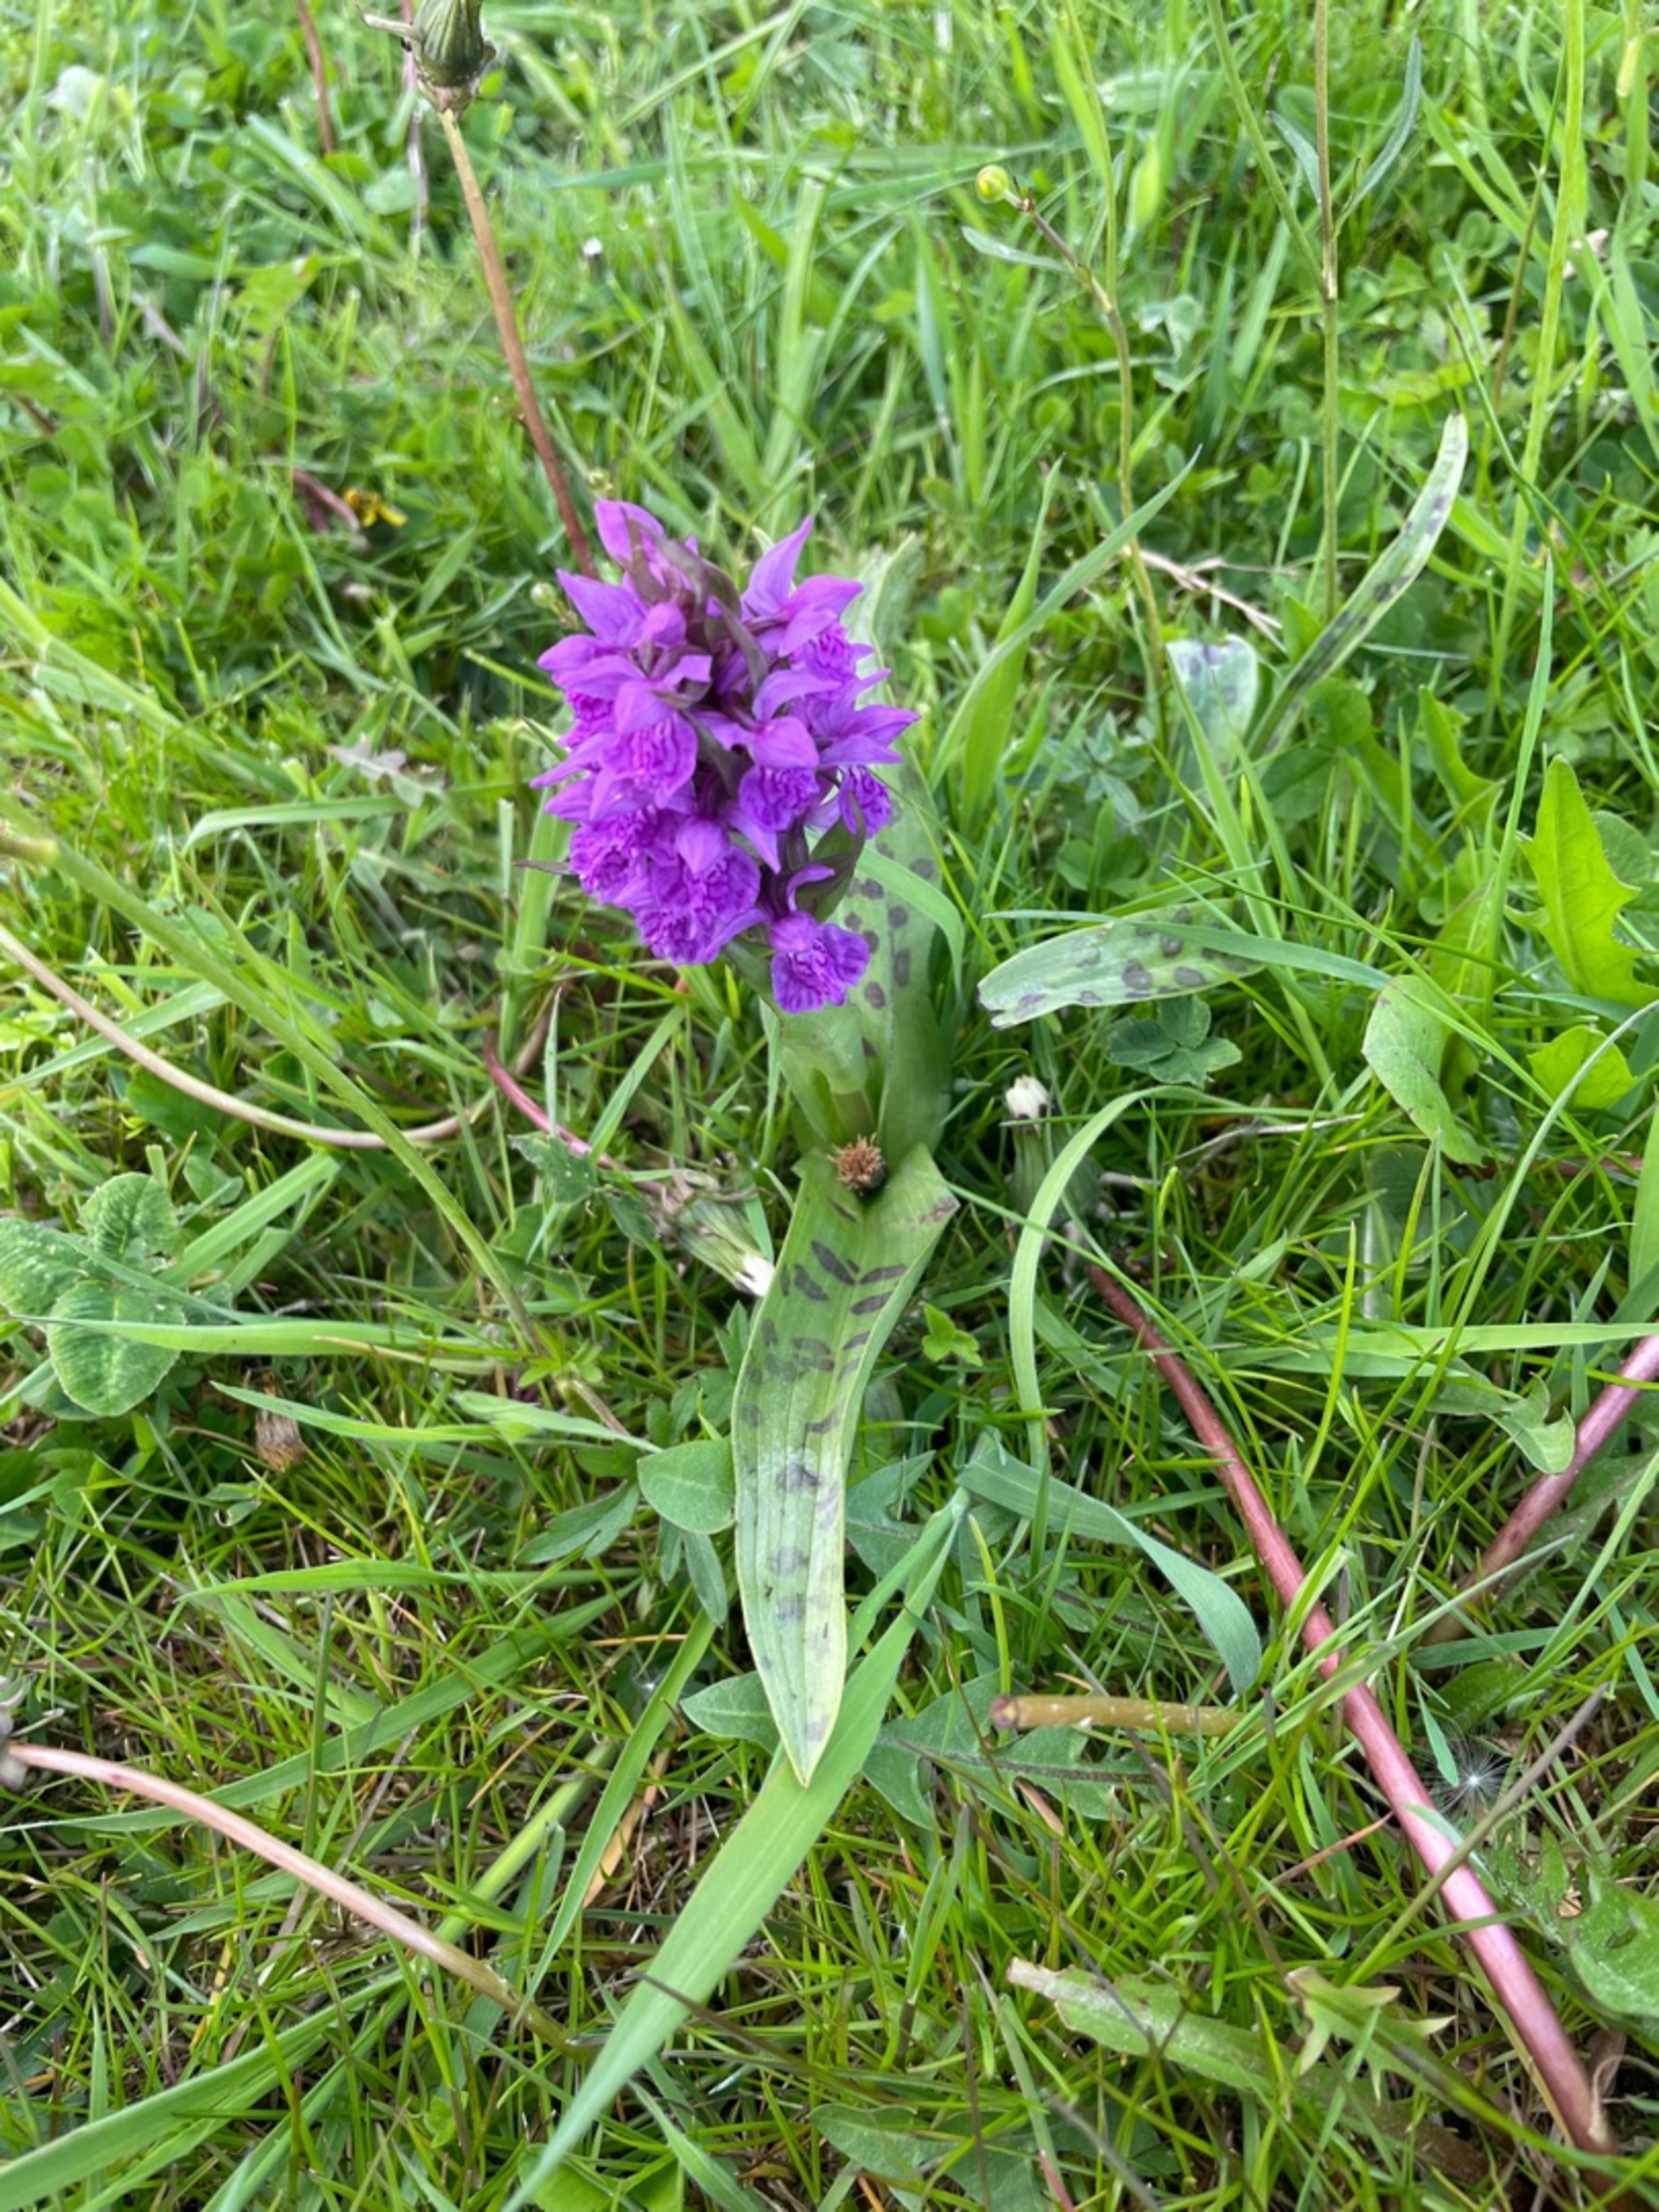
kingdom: Plantae
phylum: Tracheophyta
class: Liliopsida
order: Asparagales
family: Orchidaceae
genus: Dactylorhiza
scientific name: Dactylorhiza majalis
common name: Maj-gøgeurt
